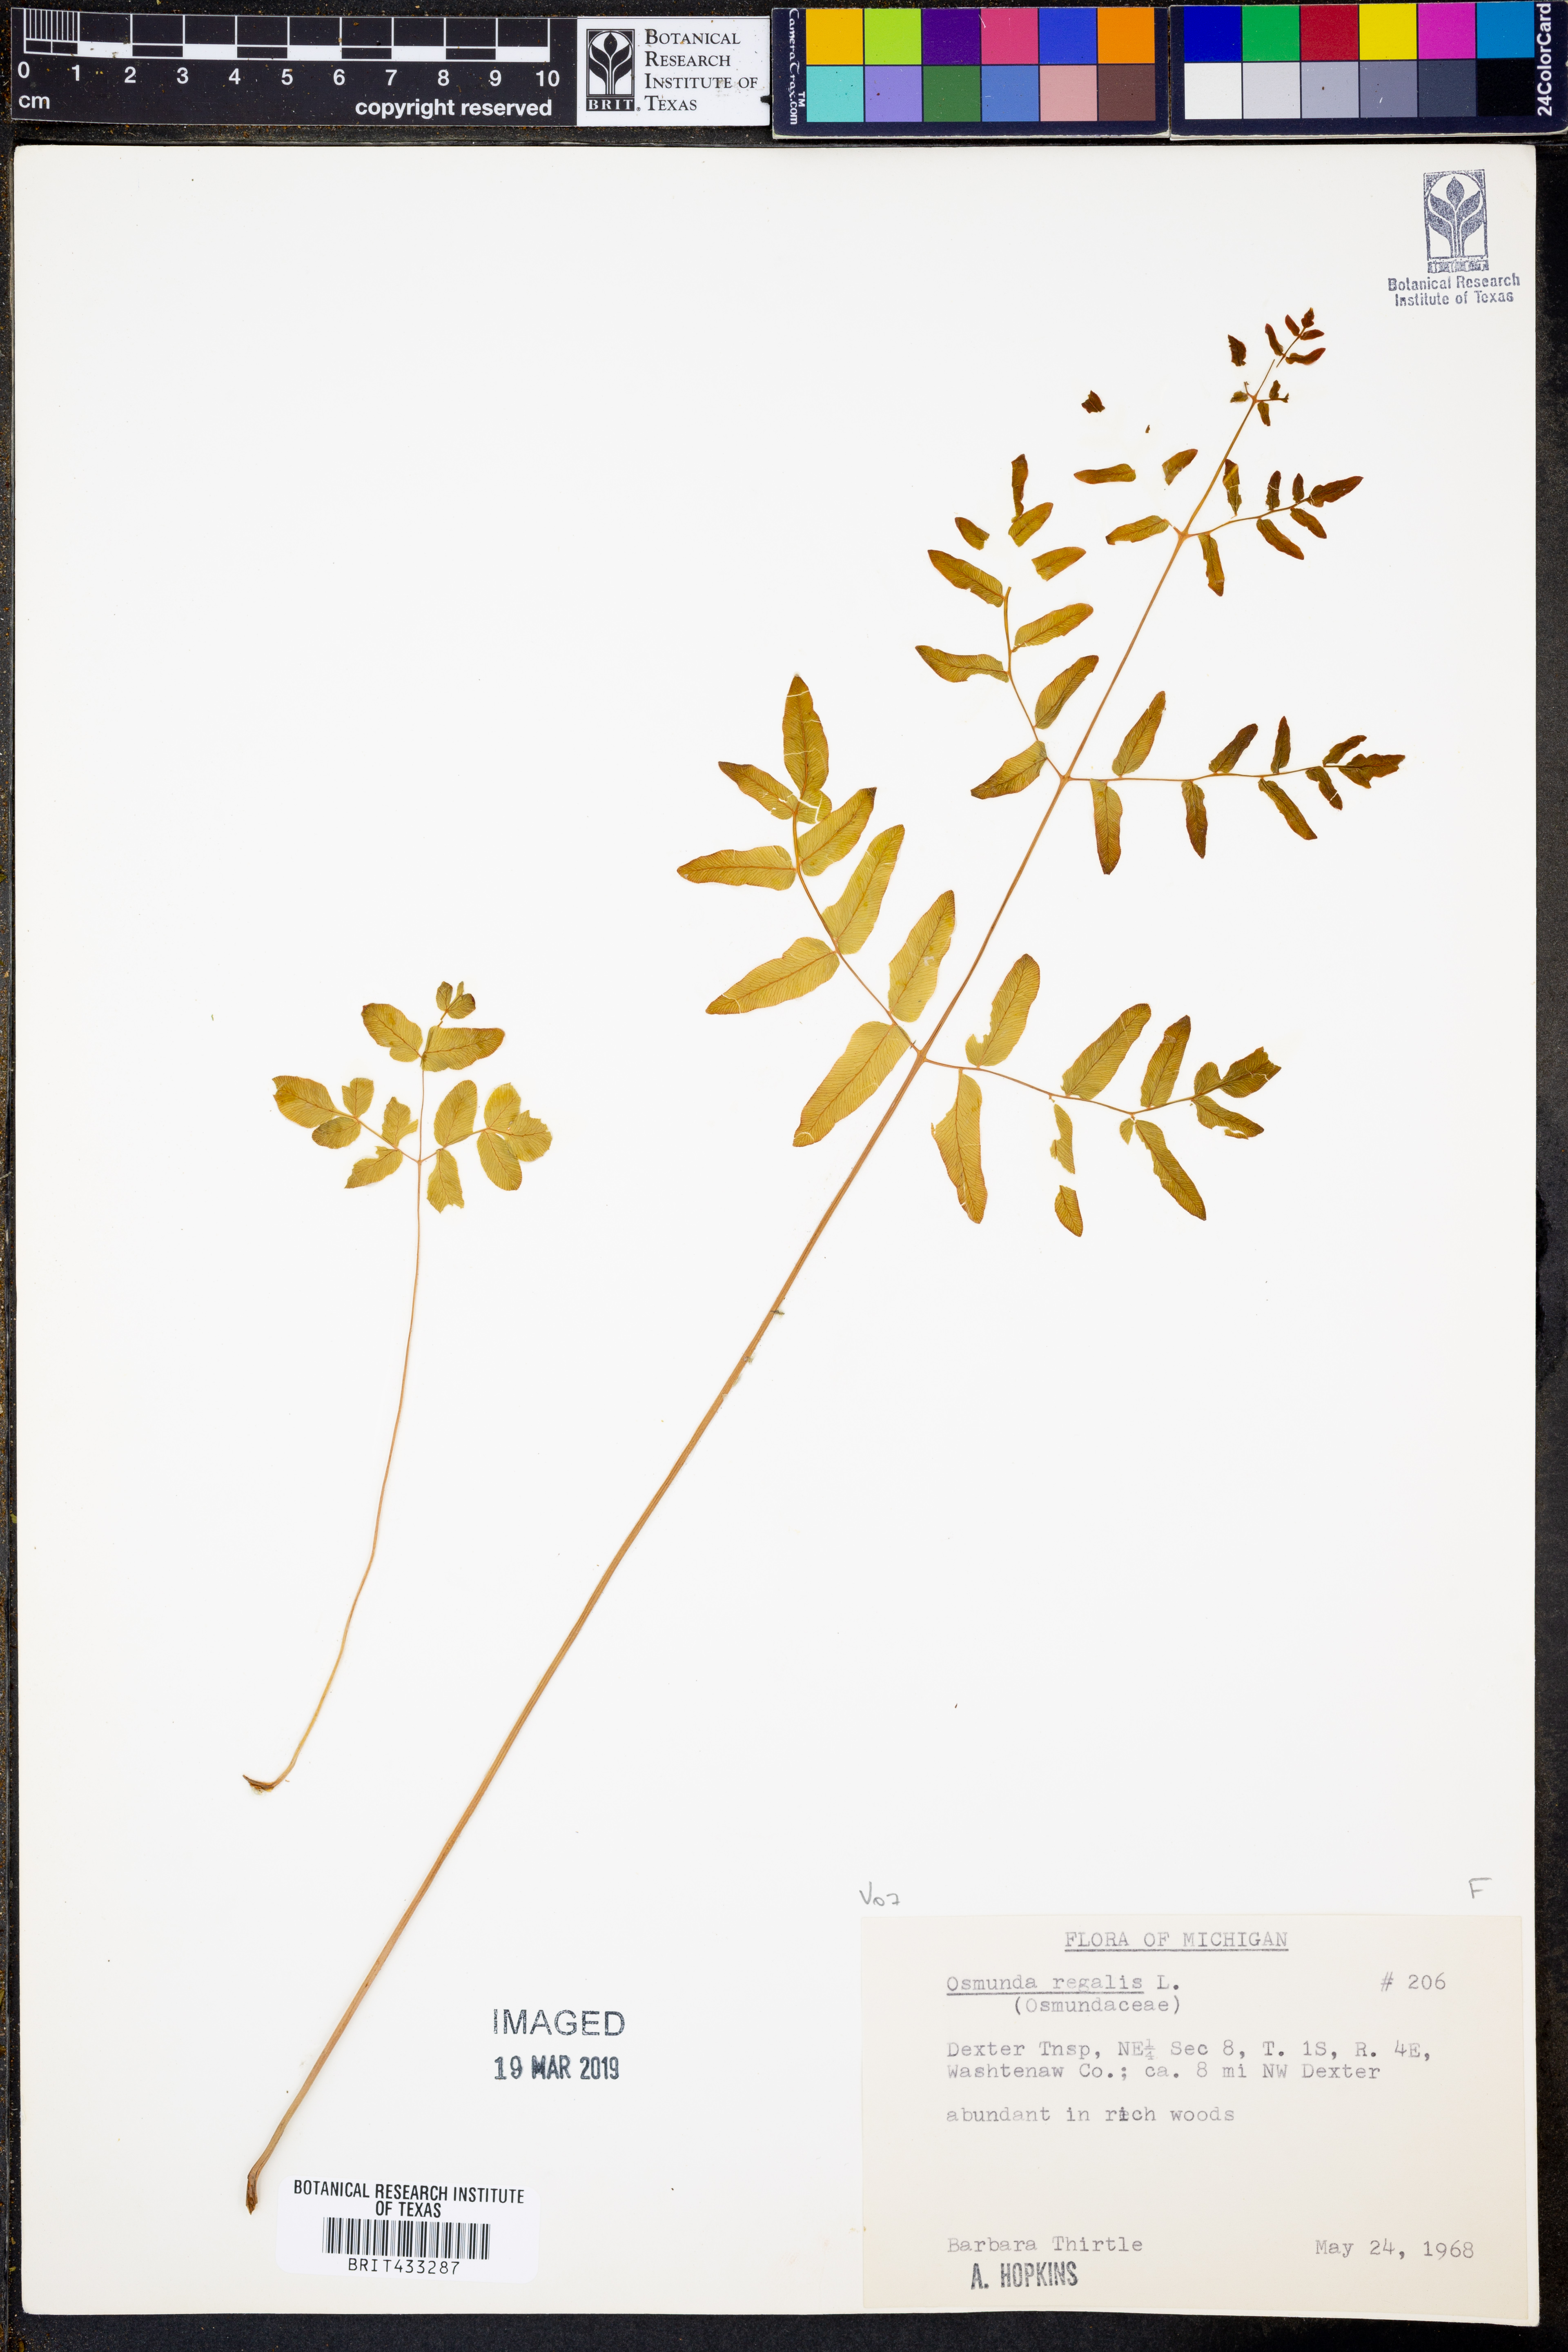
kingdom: Plantae
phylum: Tracheophyta
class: Polypodiopsida
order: Osmundales
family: Osmundaceae
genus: Osmunda
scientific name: Osmunda regalis
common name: Royal fern
